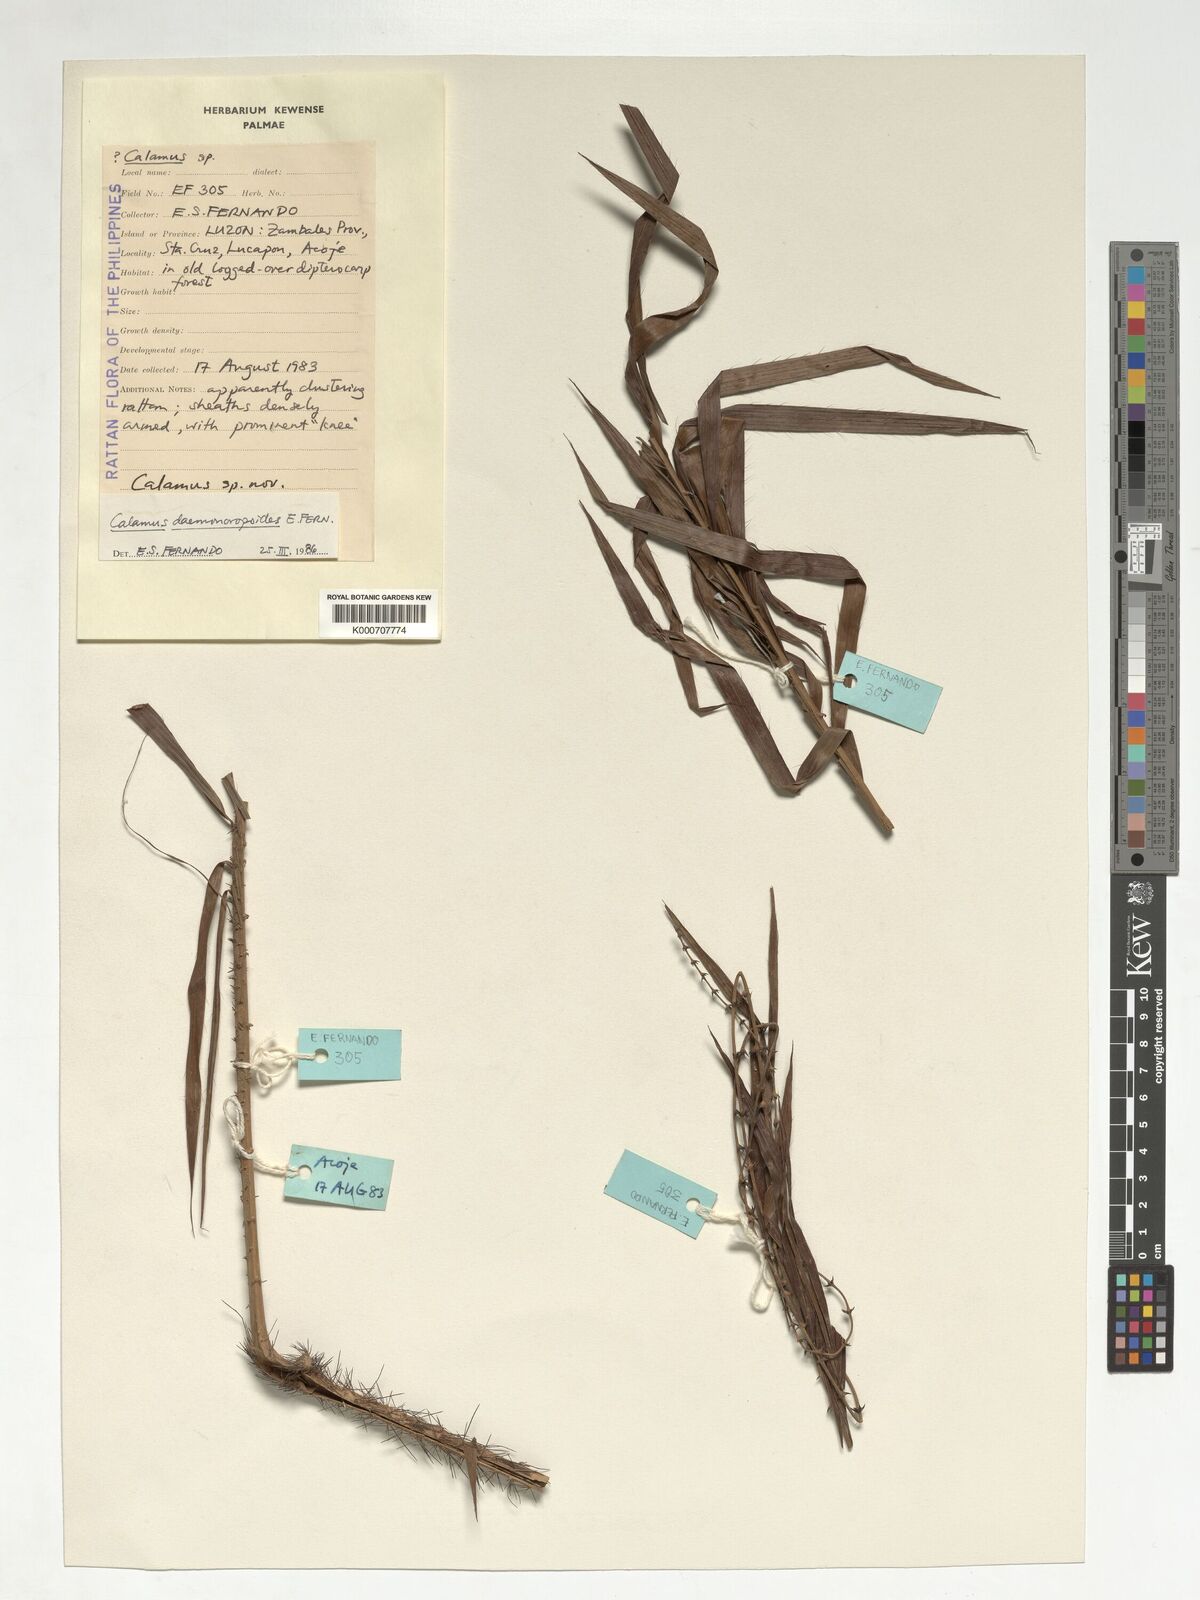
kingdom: Plantae
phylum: Tracheophyta
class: Liliopsida
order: Arecales
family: Arecaceae
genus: Calamus
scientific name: Calamus erinaceus
